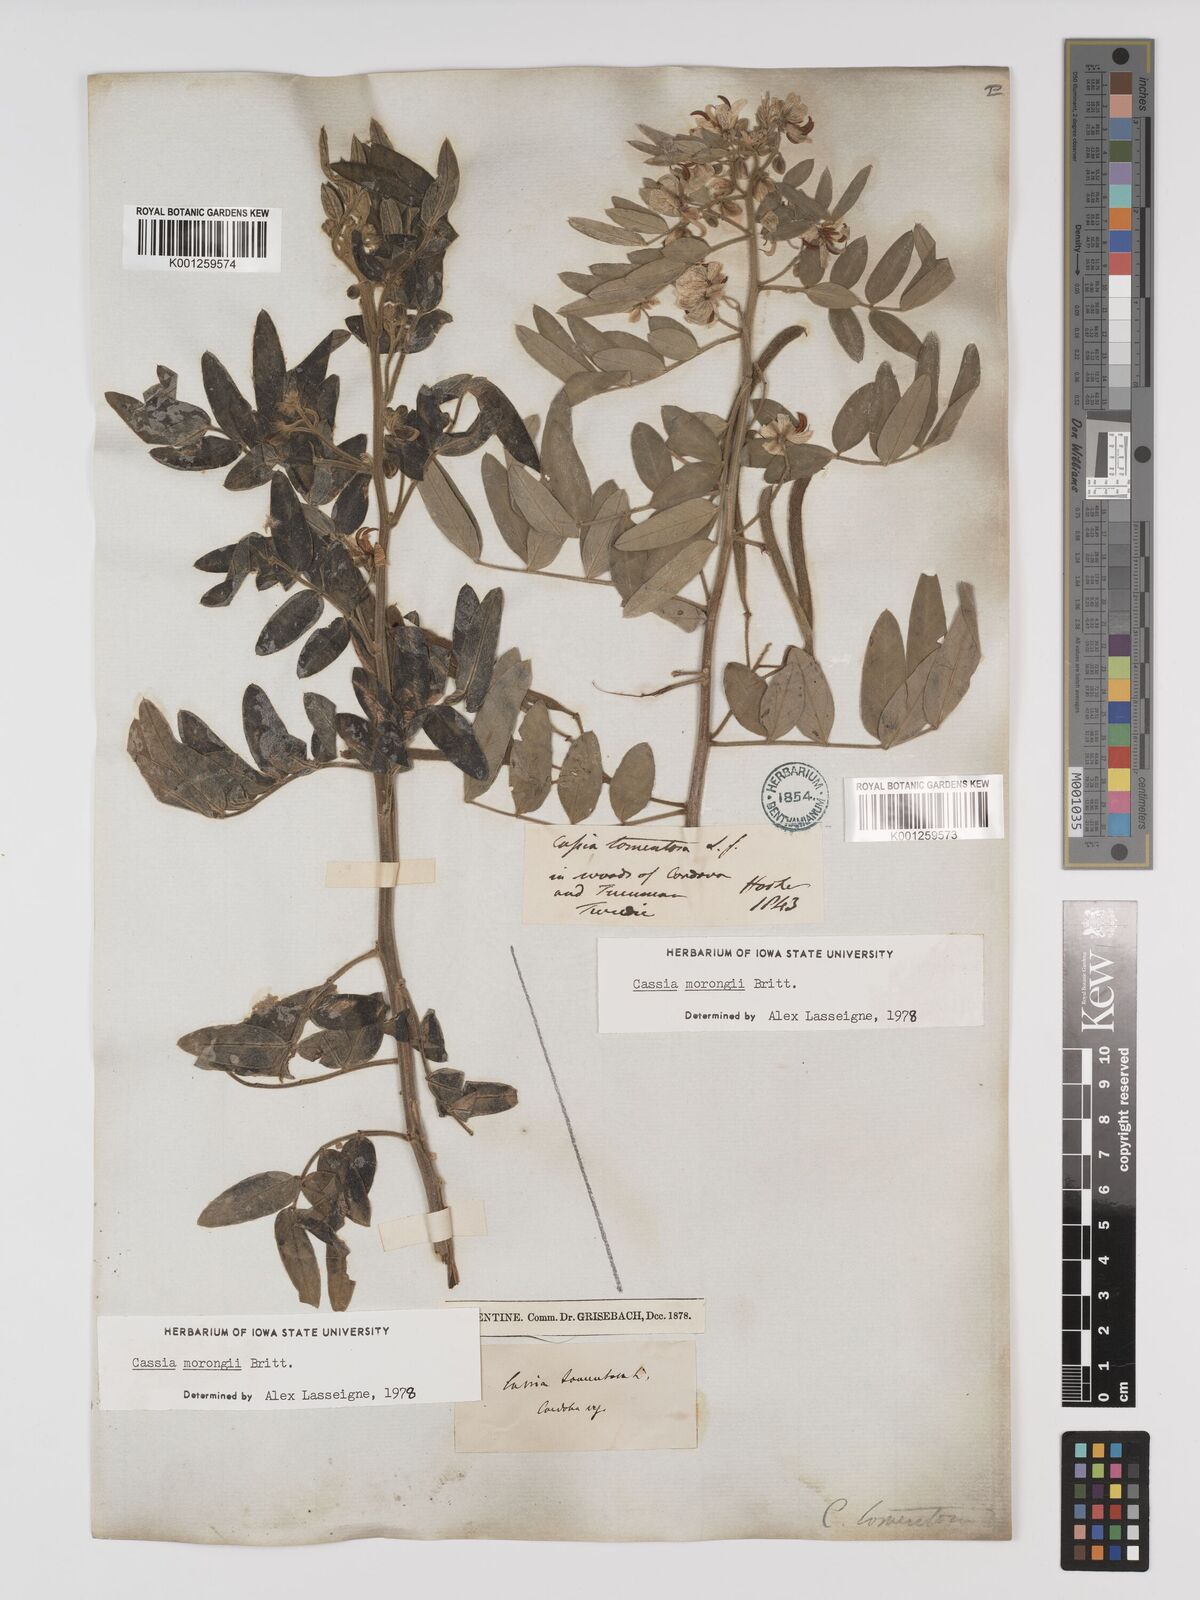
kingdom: Plantae
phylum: Tracheophyta
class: Magnoliopsida
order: Fabales
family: Fabaceae
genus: Senna
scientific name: Senna morongii
